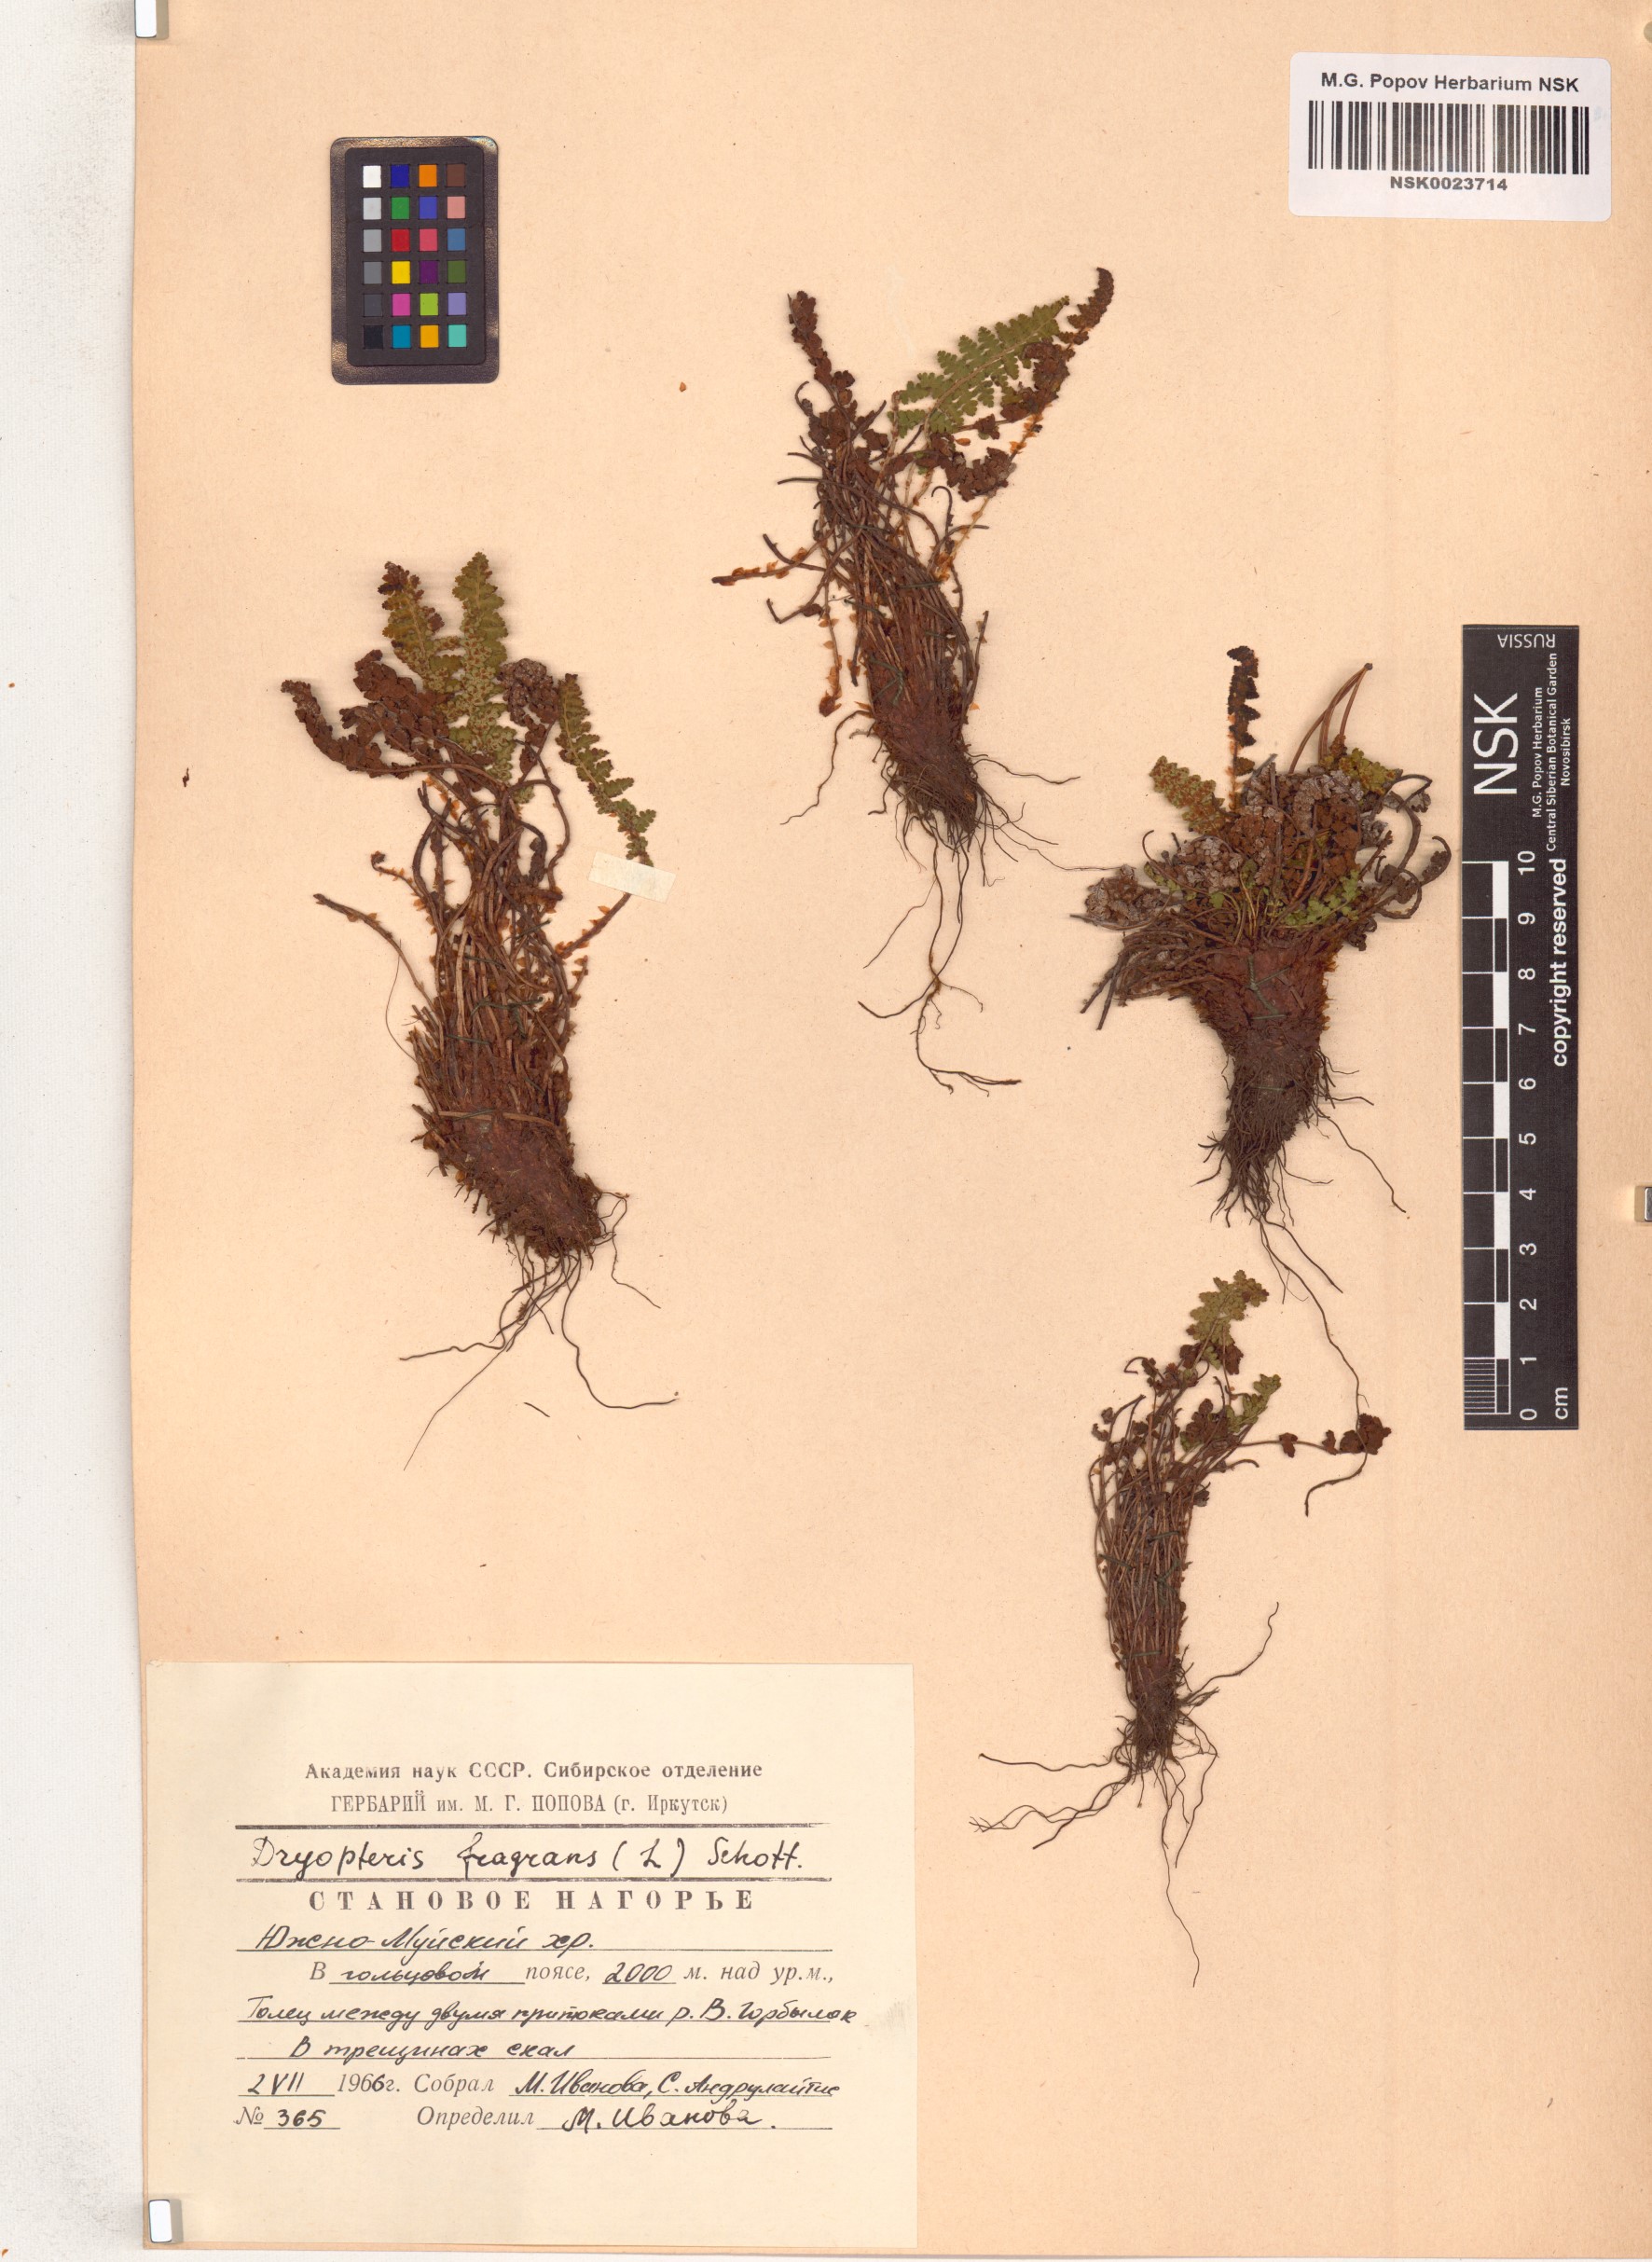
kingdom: Plantae
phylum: Tracheophyta
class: Polypodiopsida
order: Polypodiales
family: Dryopteridaceae
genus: Dryopteris
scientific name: Dryopteris fragrans
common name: Fragrant wood fern
